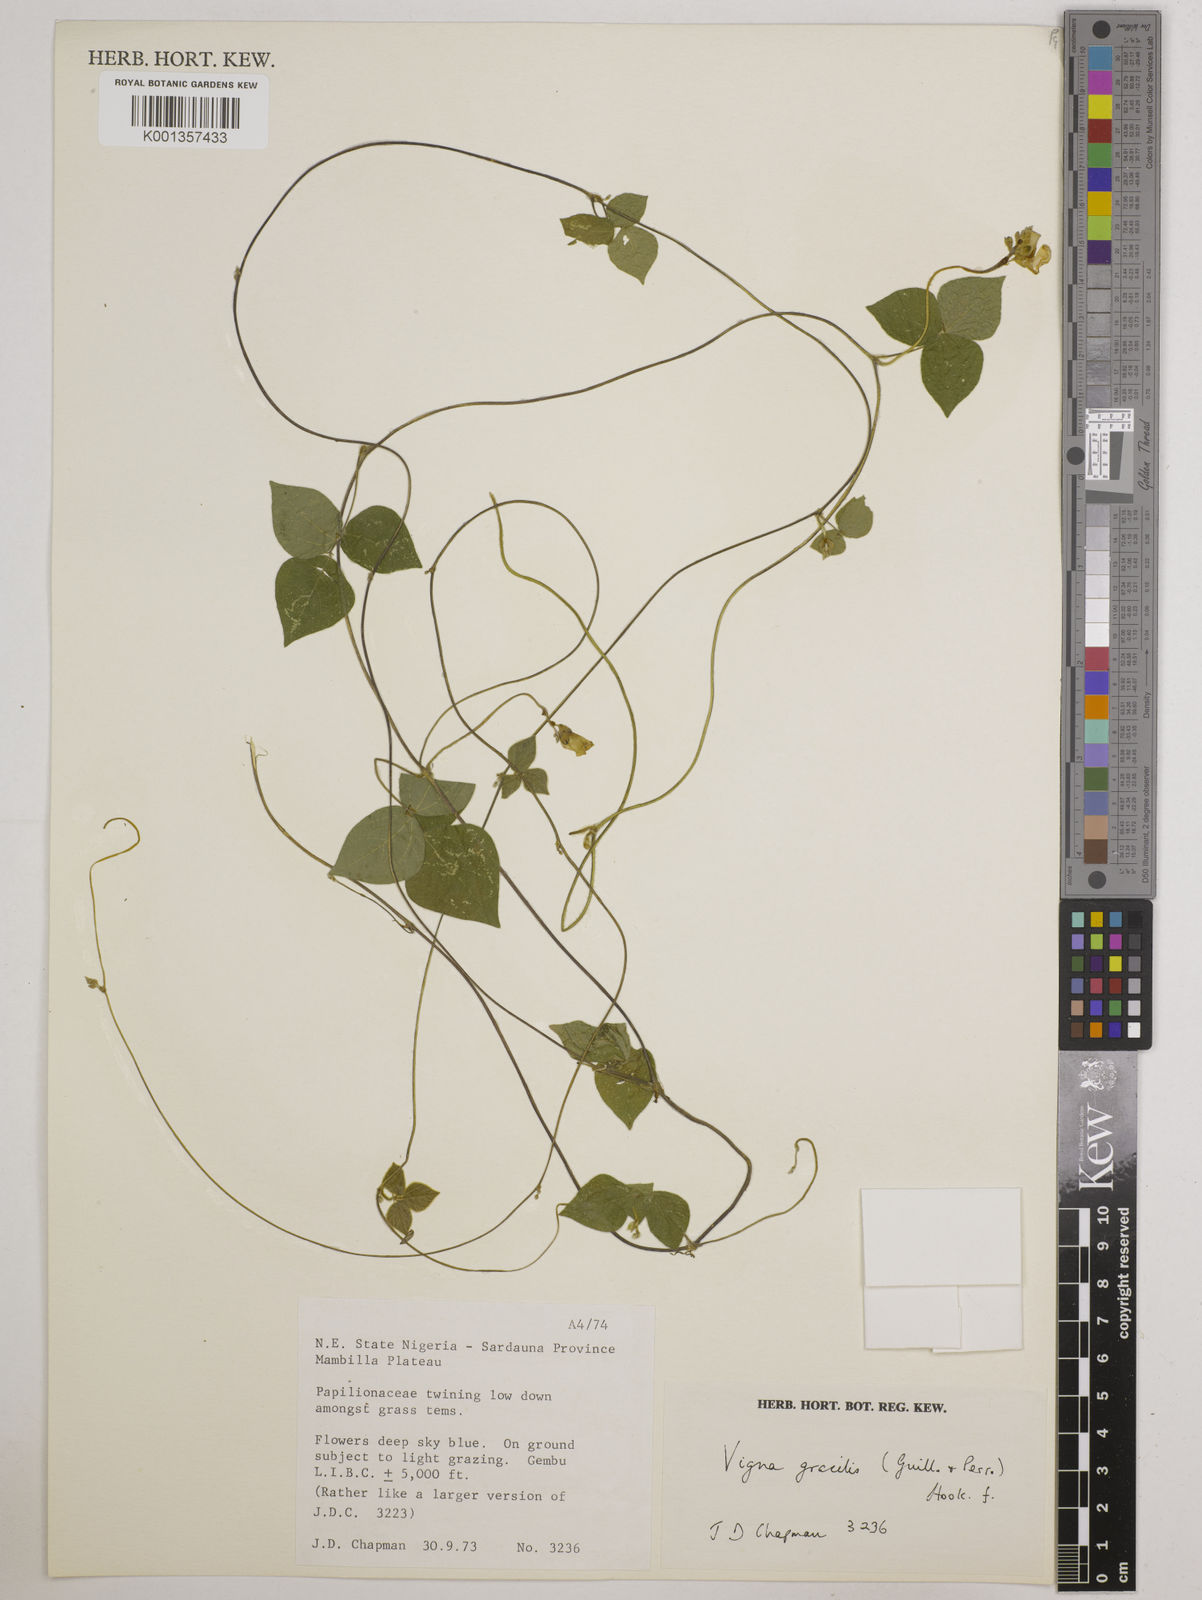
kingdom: Plantae
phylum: Tracheophyta
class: Magnoliopsida
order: Fabales
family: Fabaceae
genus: Vigna
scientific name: Vigna gracilis
